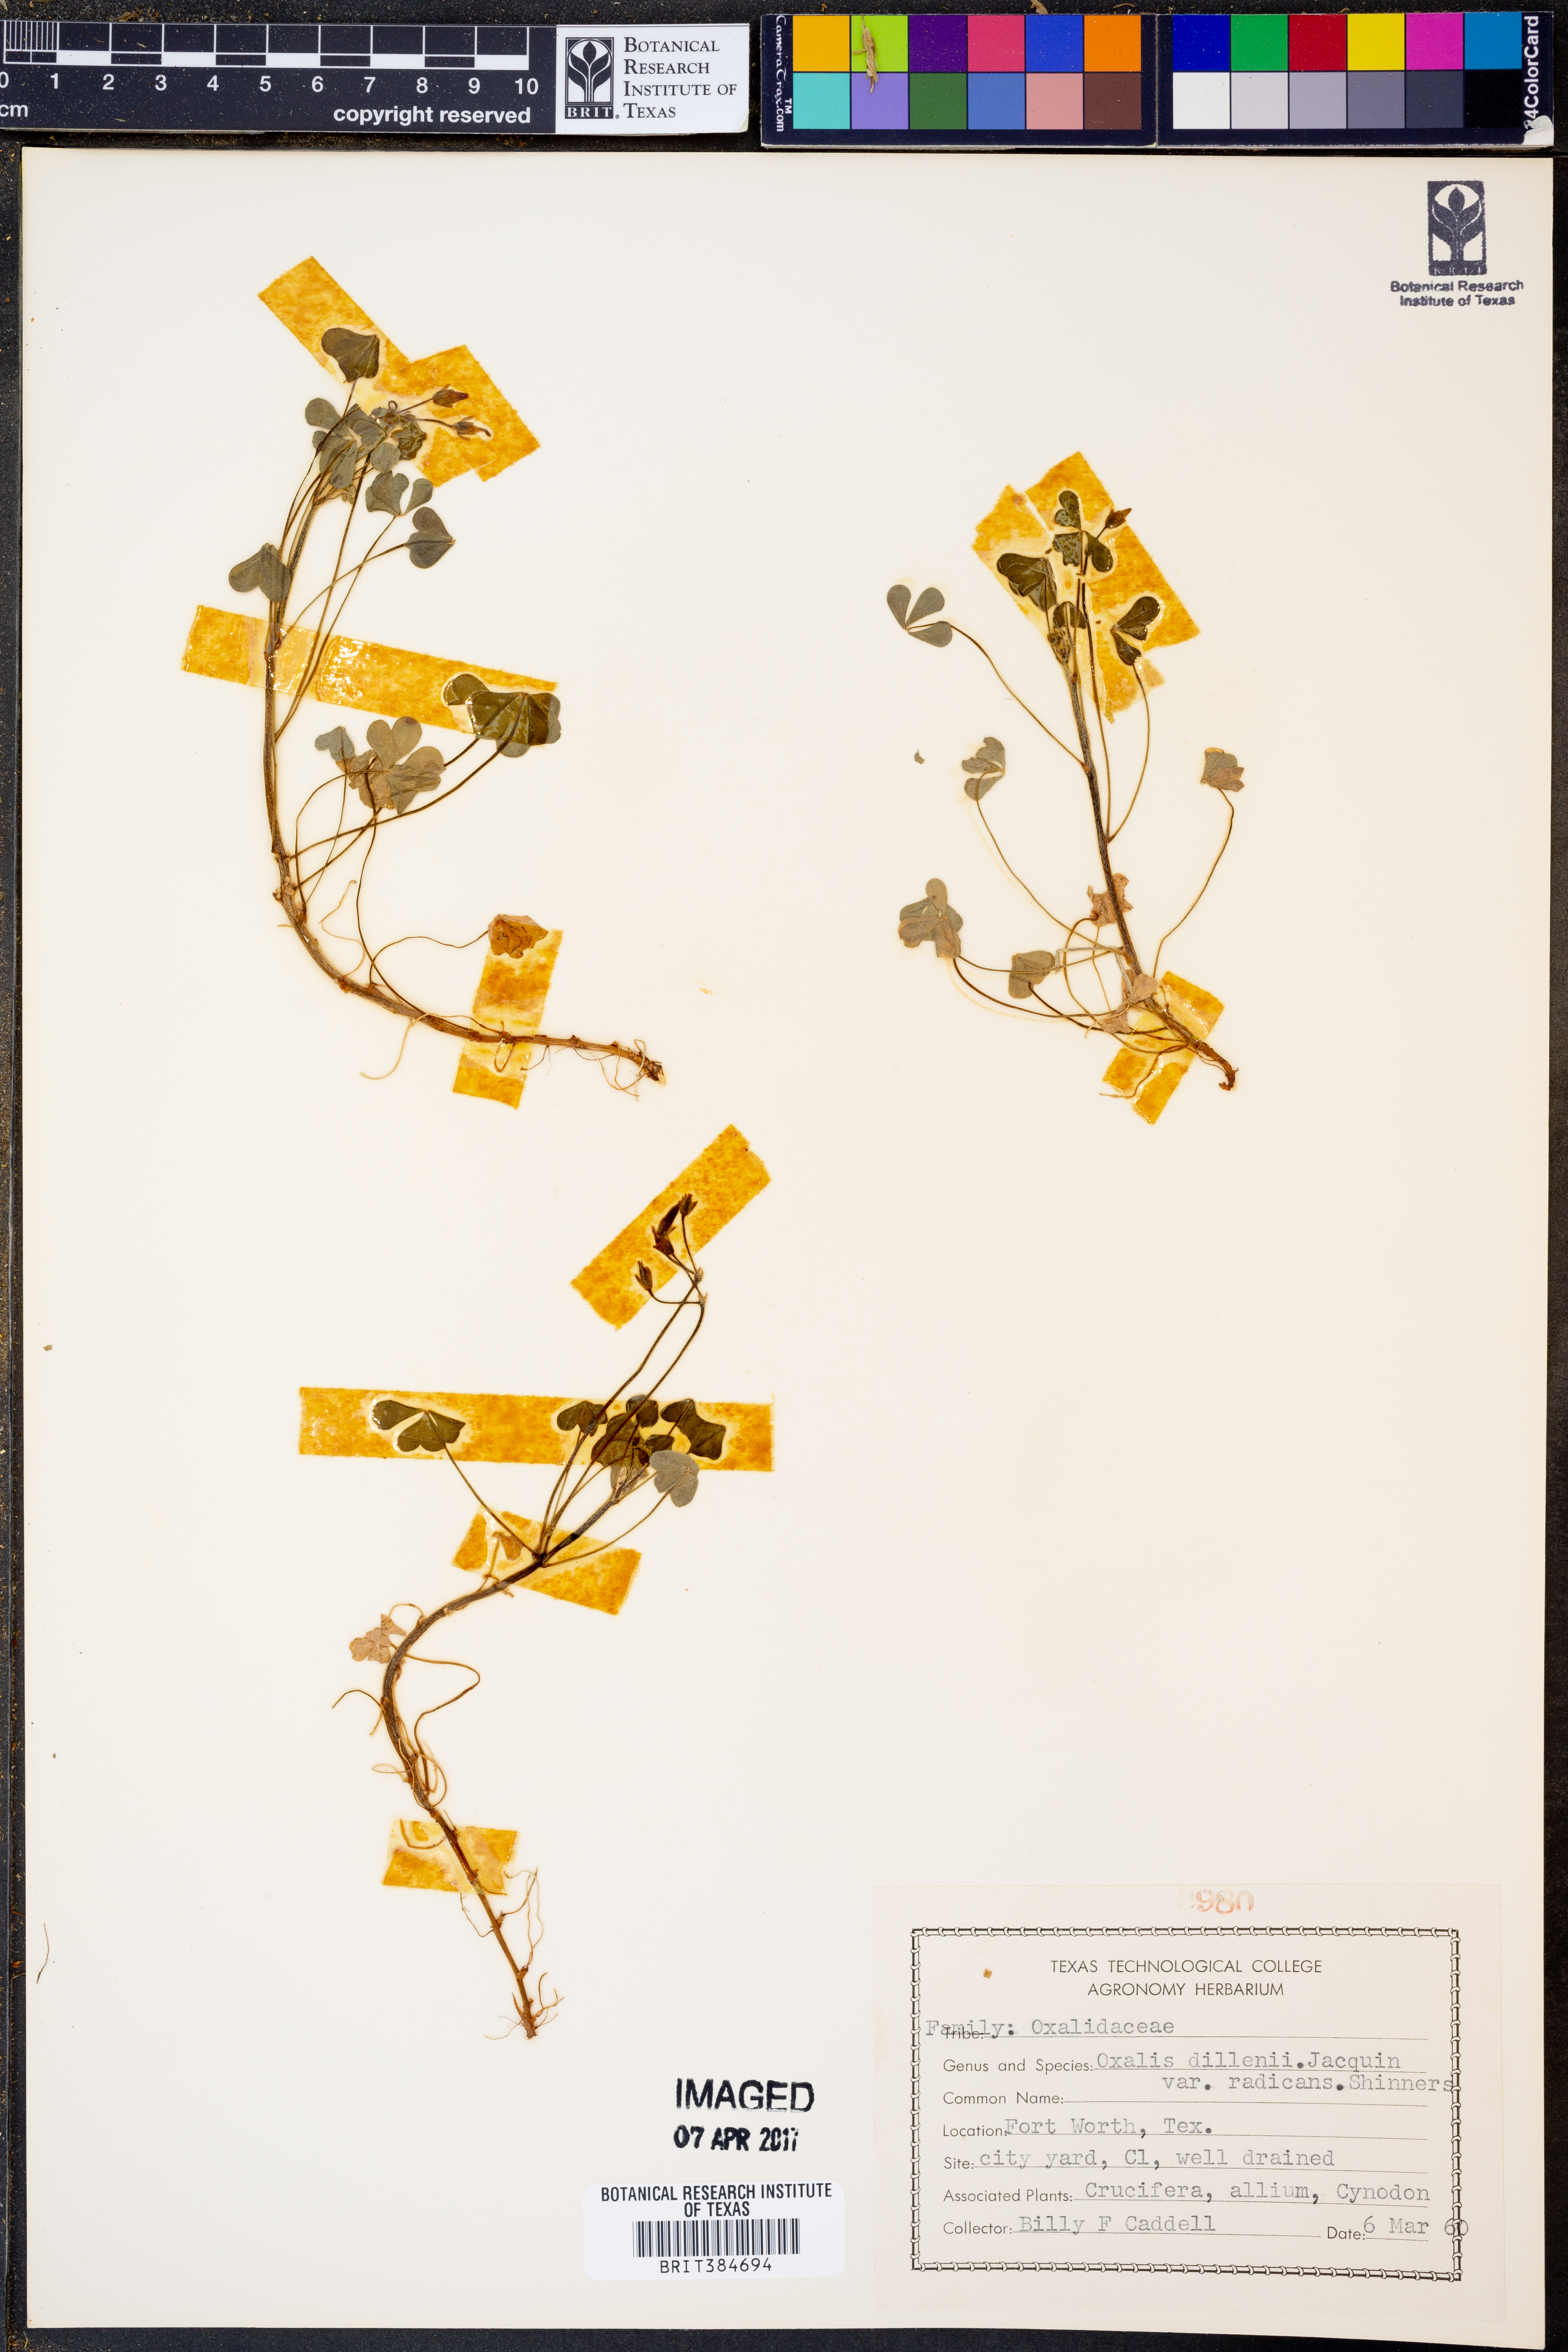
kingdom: Plantae
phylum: Tracheophyta
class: Magnoliopsida
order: Oxalidales
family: Oxalidaceae
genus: Oxalis
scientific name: Oxalis dillenii
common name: Sussex yellow-sorrel
